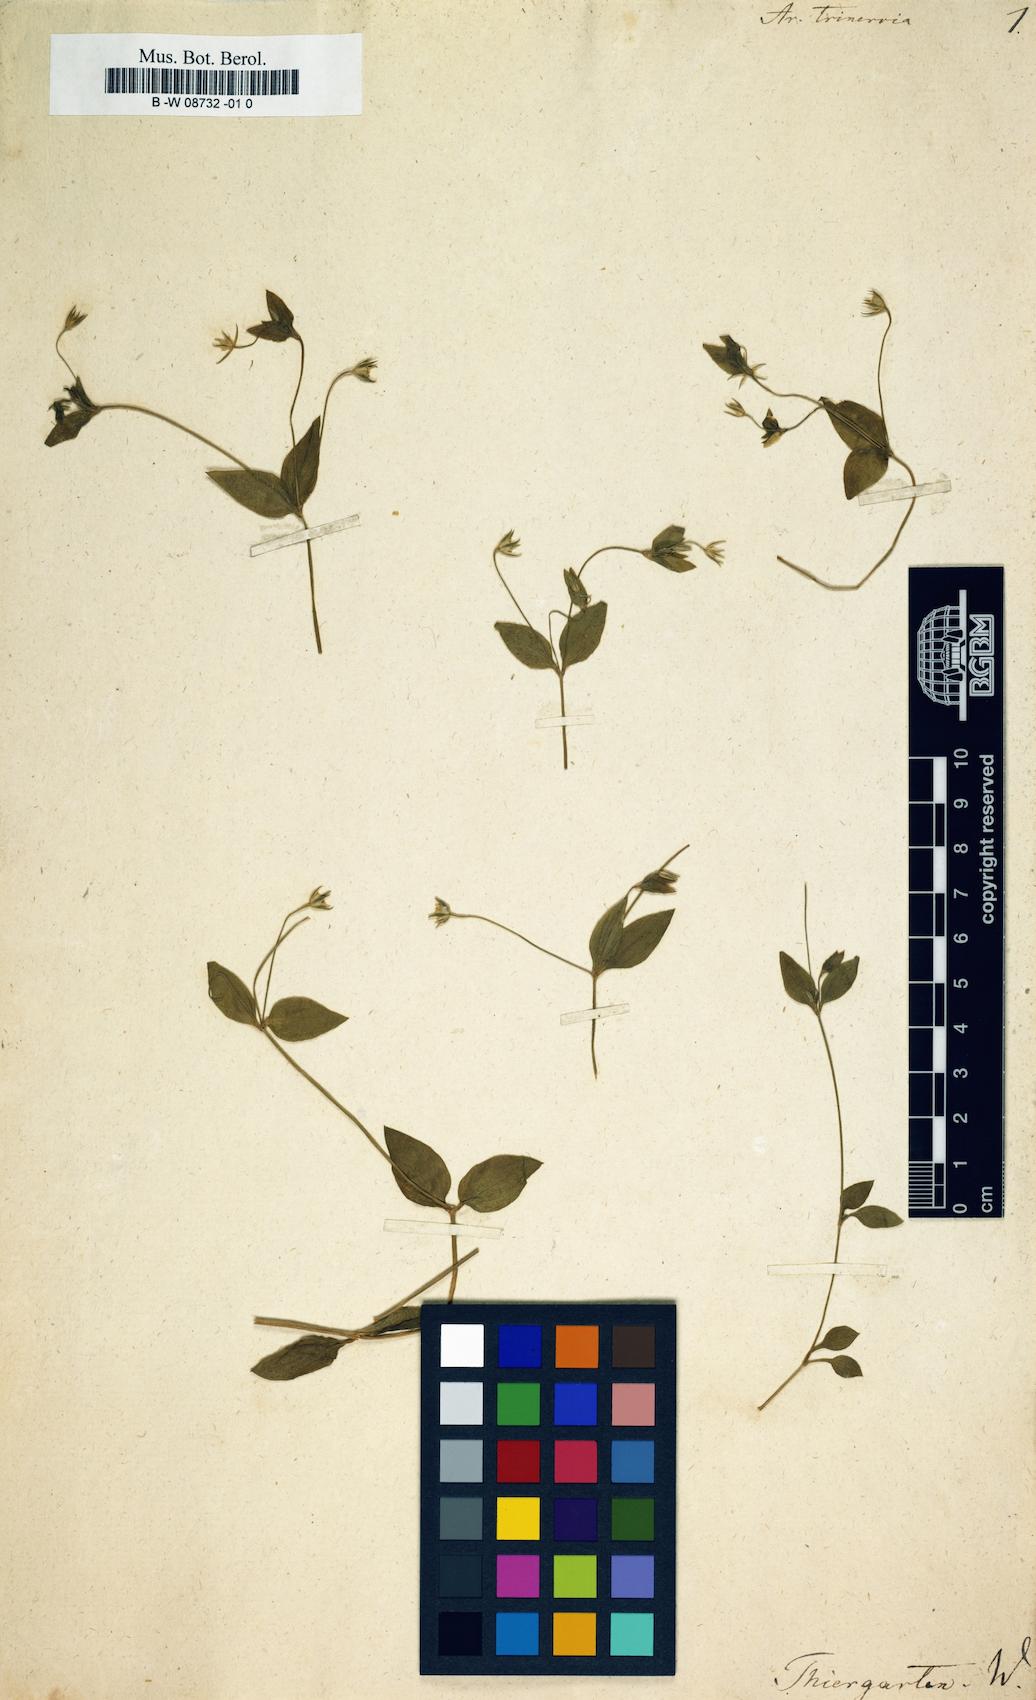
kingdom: Plantae
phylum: Tracheophyta
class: Magnoliopsida
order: Caryophyllales
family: Caryophyllaceae
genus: Moehringia
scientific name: Moehringia trinervia
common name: Three-nerved sandwort
